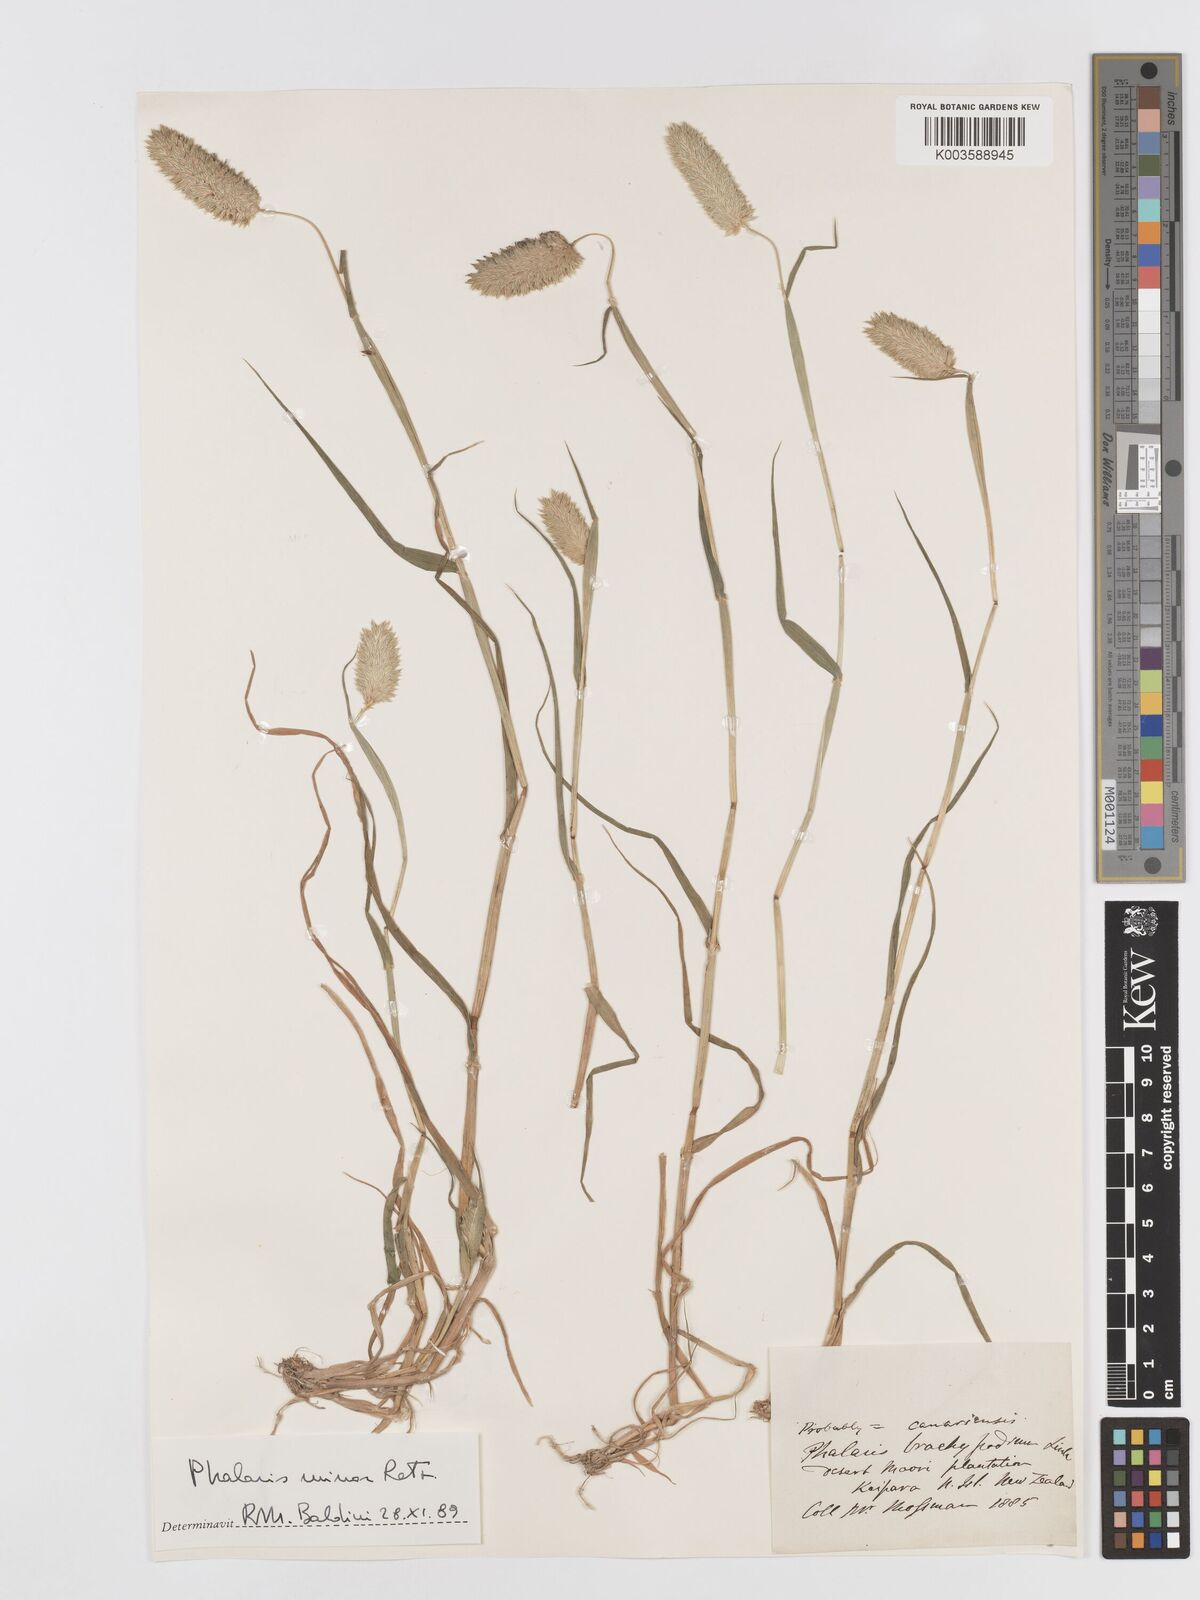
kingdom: Plantae
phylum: Tracheophyta
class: Liliopsida
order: Poales
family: Poaceae
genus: Phalaris
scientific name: Phalaris minor
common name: Littleseed canarygrass
